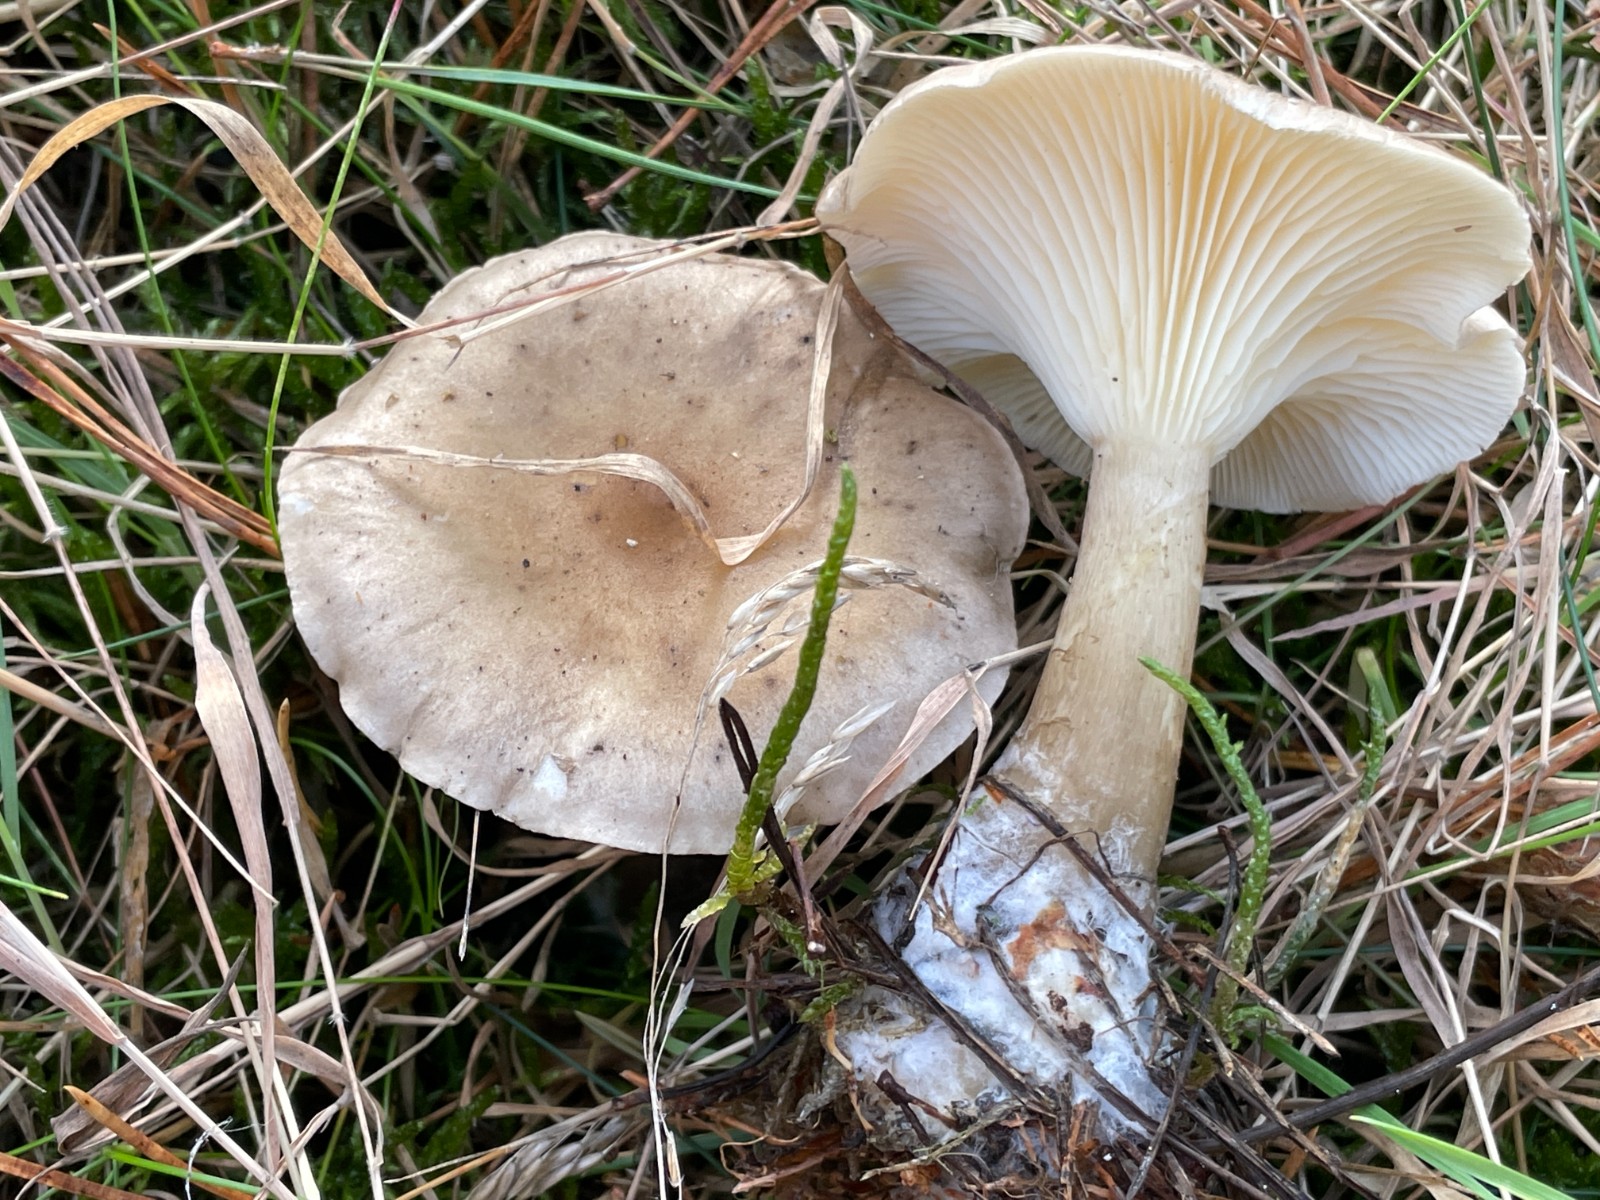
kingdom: Fungi
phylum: Basidiomycota
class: Agaricomycetes
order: Agaricales
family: Hygrophoraceae
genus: Ampulloclitocybe
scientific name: Ampulloclitocybe clavipes
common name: køllefod
